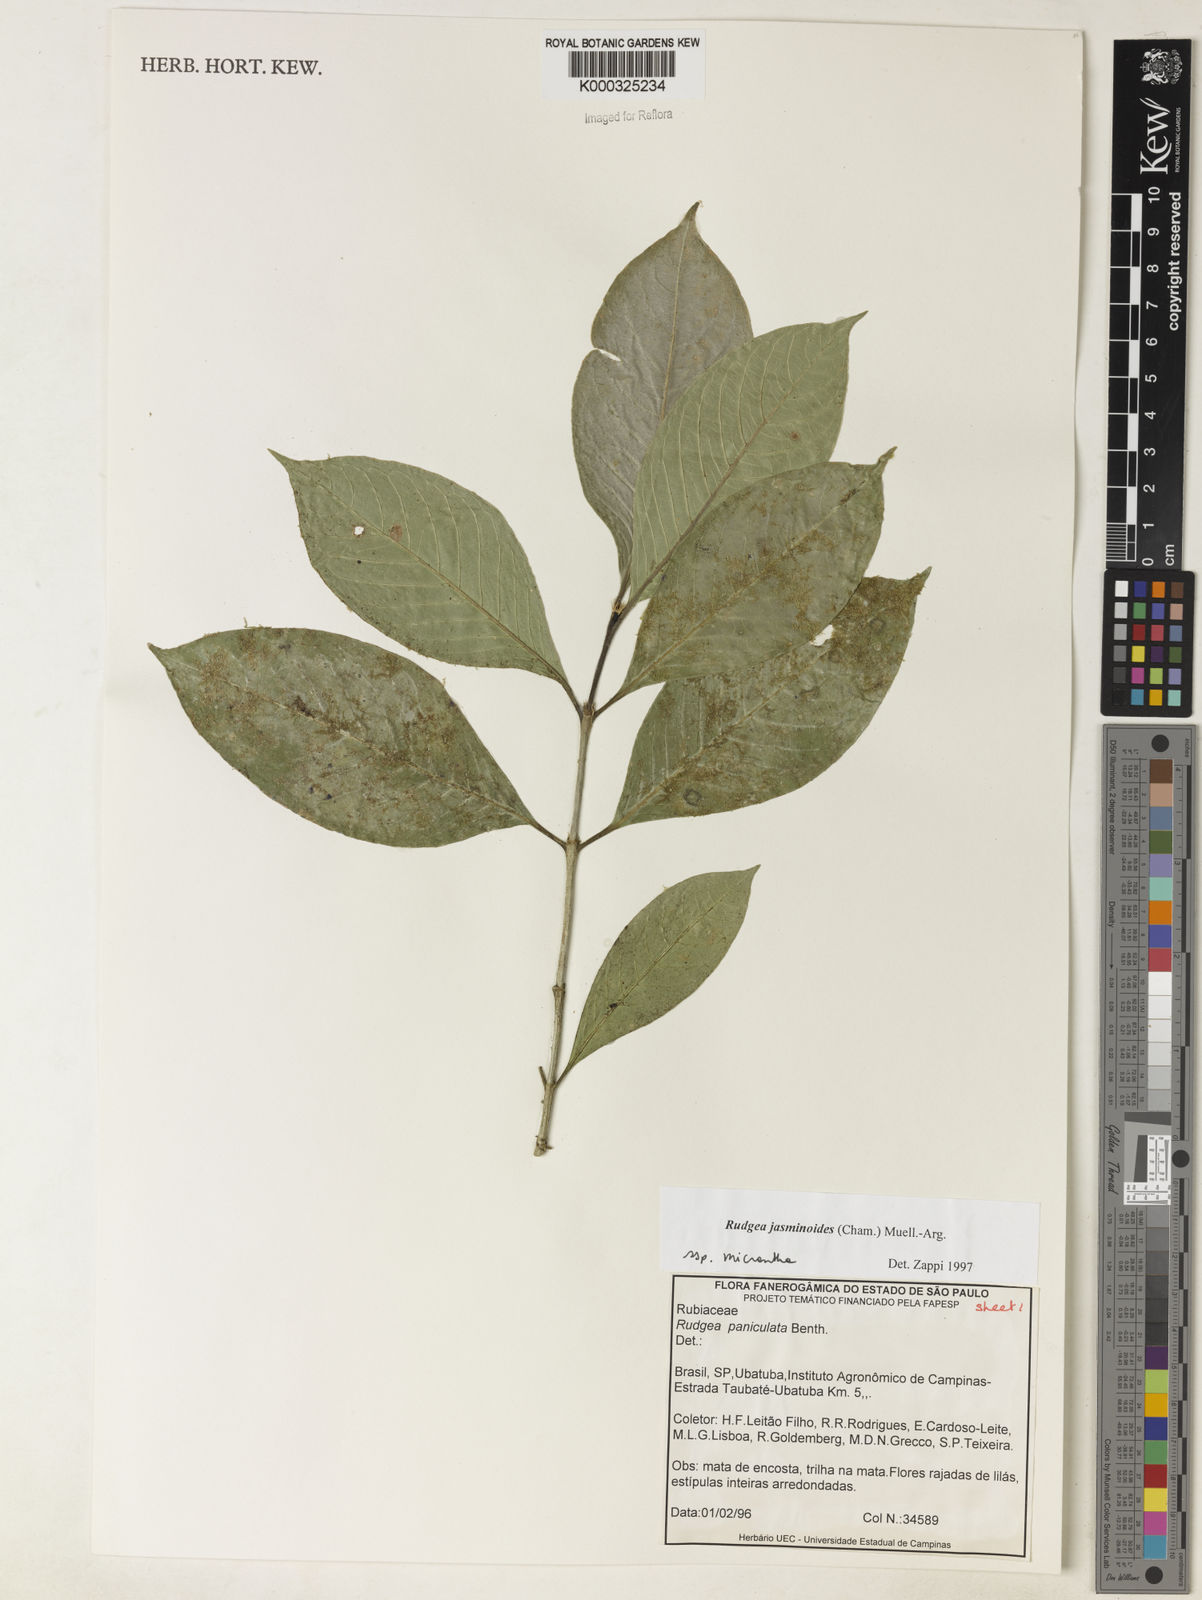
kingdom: Plantae
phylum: Tracheophyta
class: Magnoliopsida
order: Gentianales
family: Rubiaceae
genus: Rudgea
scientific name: Rudgea jasminoides
